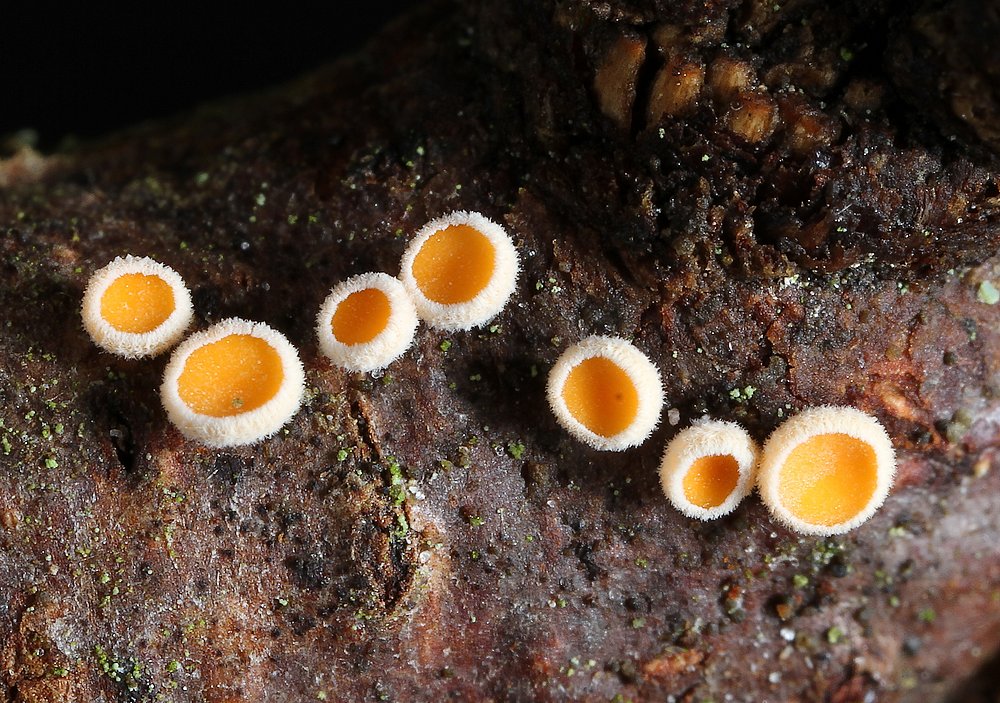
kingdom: Fungi
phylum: Ascomycota
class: Leotiomycetes
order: Helotiales
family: Lachnaceae
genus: Lachnellula
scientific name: Lachnellula occidentalis
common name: Larch disco
